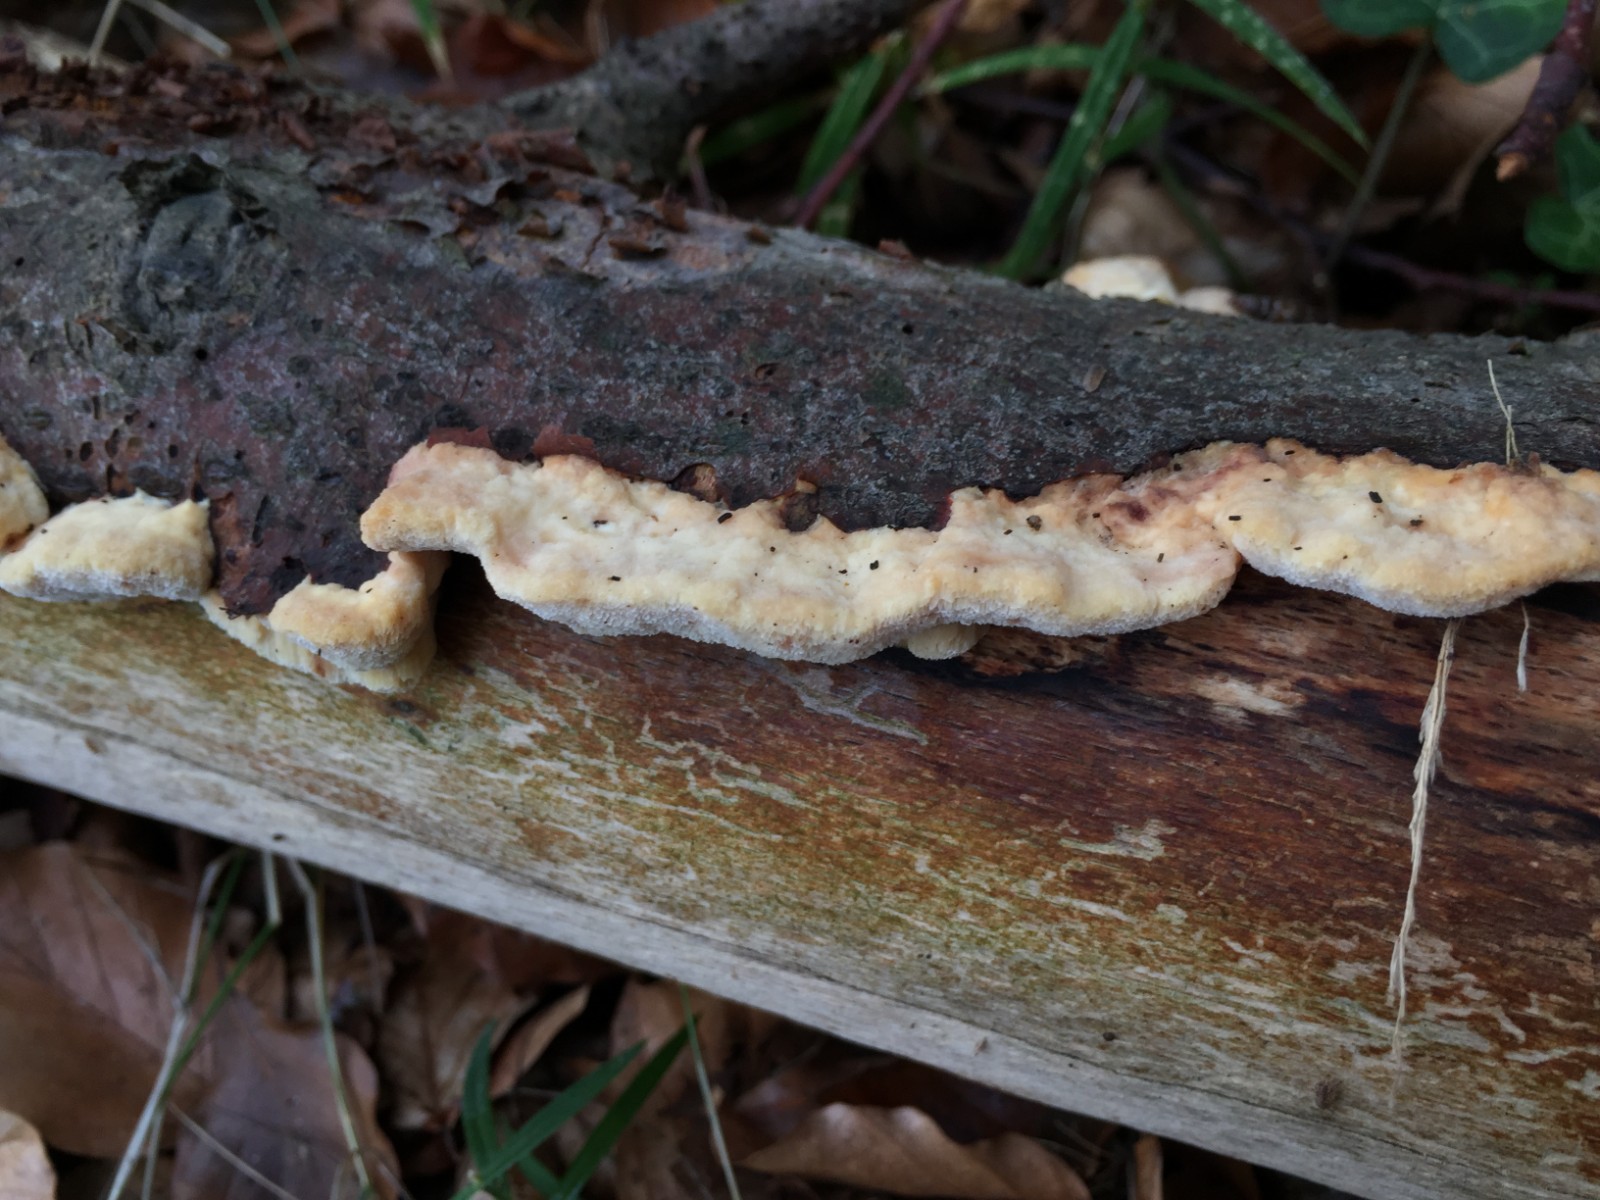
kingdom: Fungi
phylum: Basidiomycota
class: Agaricomycetes
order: Polyporales
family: Steccherinaceae
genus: Antrodiella
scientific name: Antrodiella serpula
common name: gulrandet elastikporesvamp
